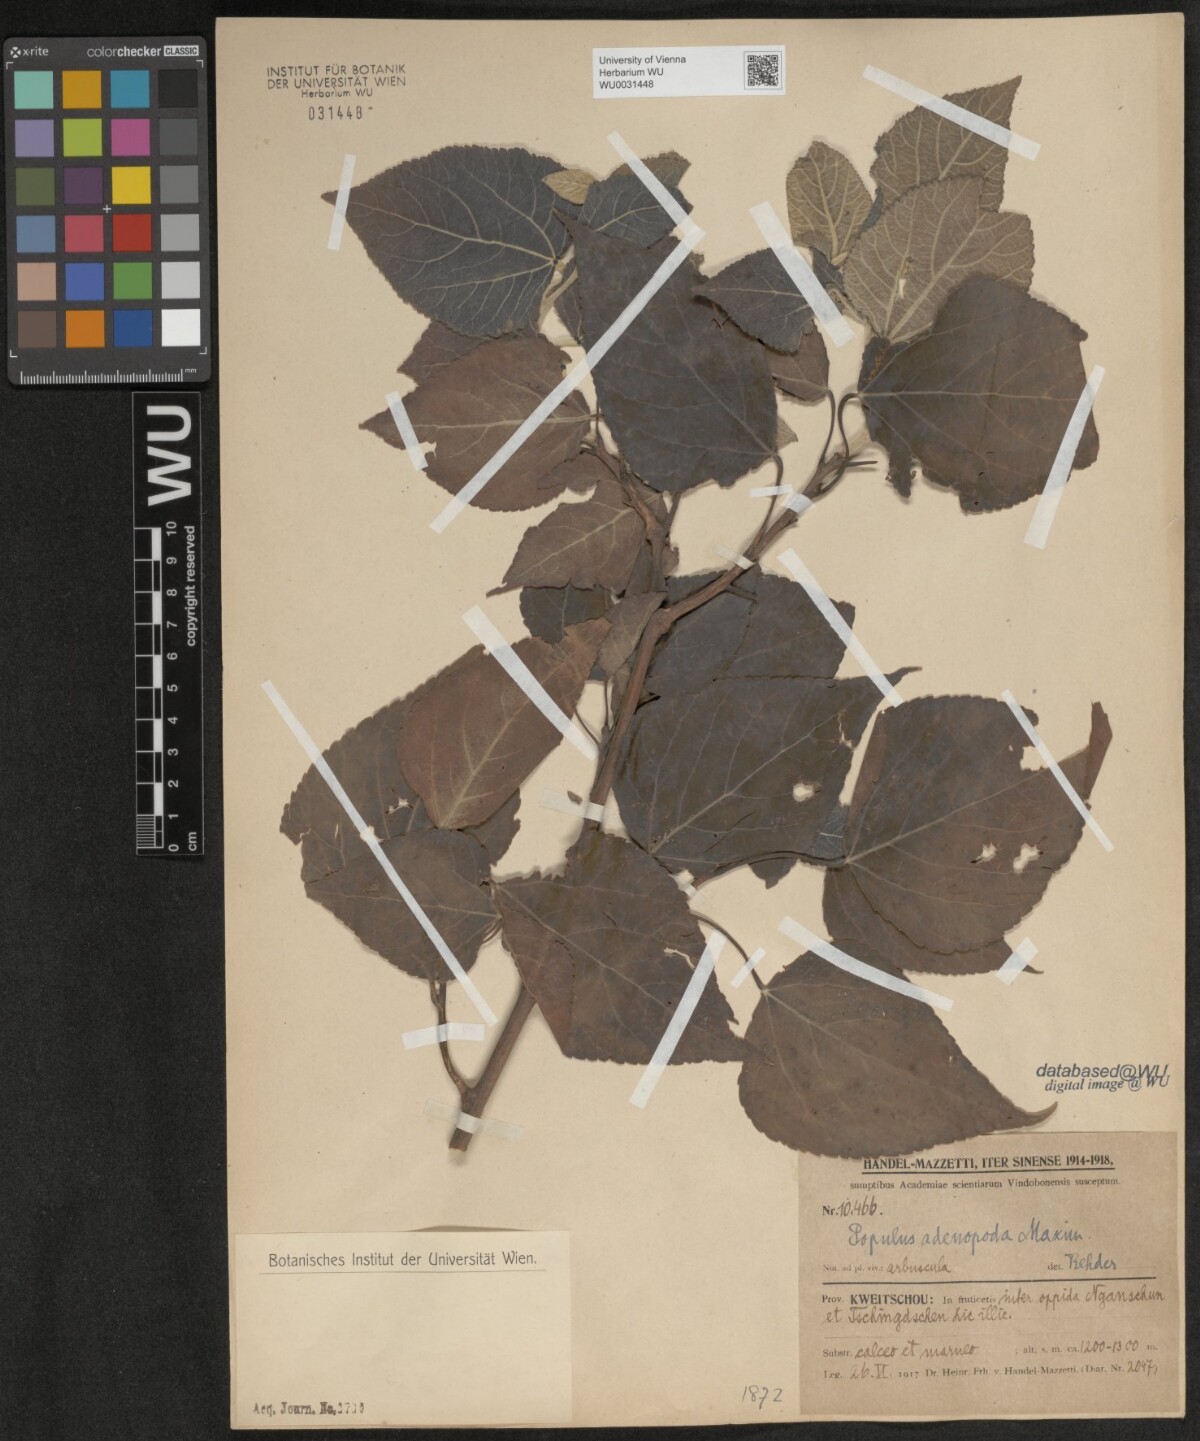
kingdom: Plantae
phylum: Tracheophyta
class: Magnoliopsida
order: Malpighiales
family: Salicaceae
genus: Populus
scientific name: Populus adenopoda
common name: Chinese aspen
